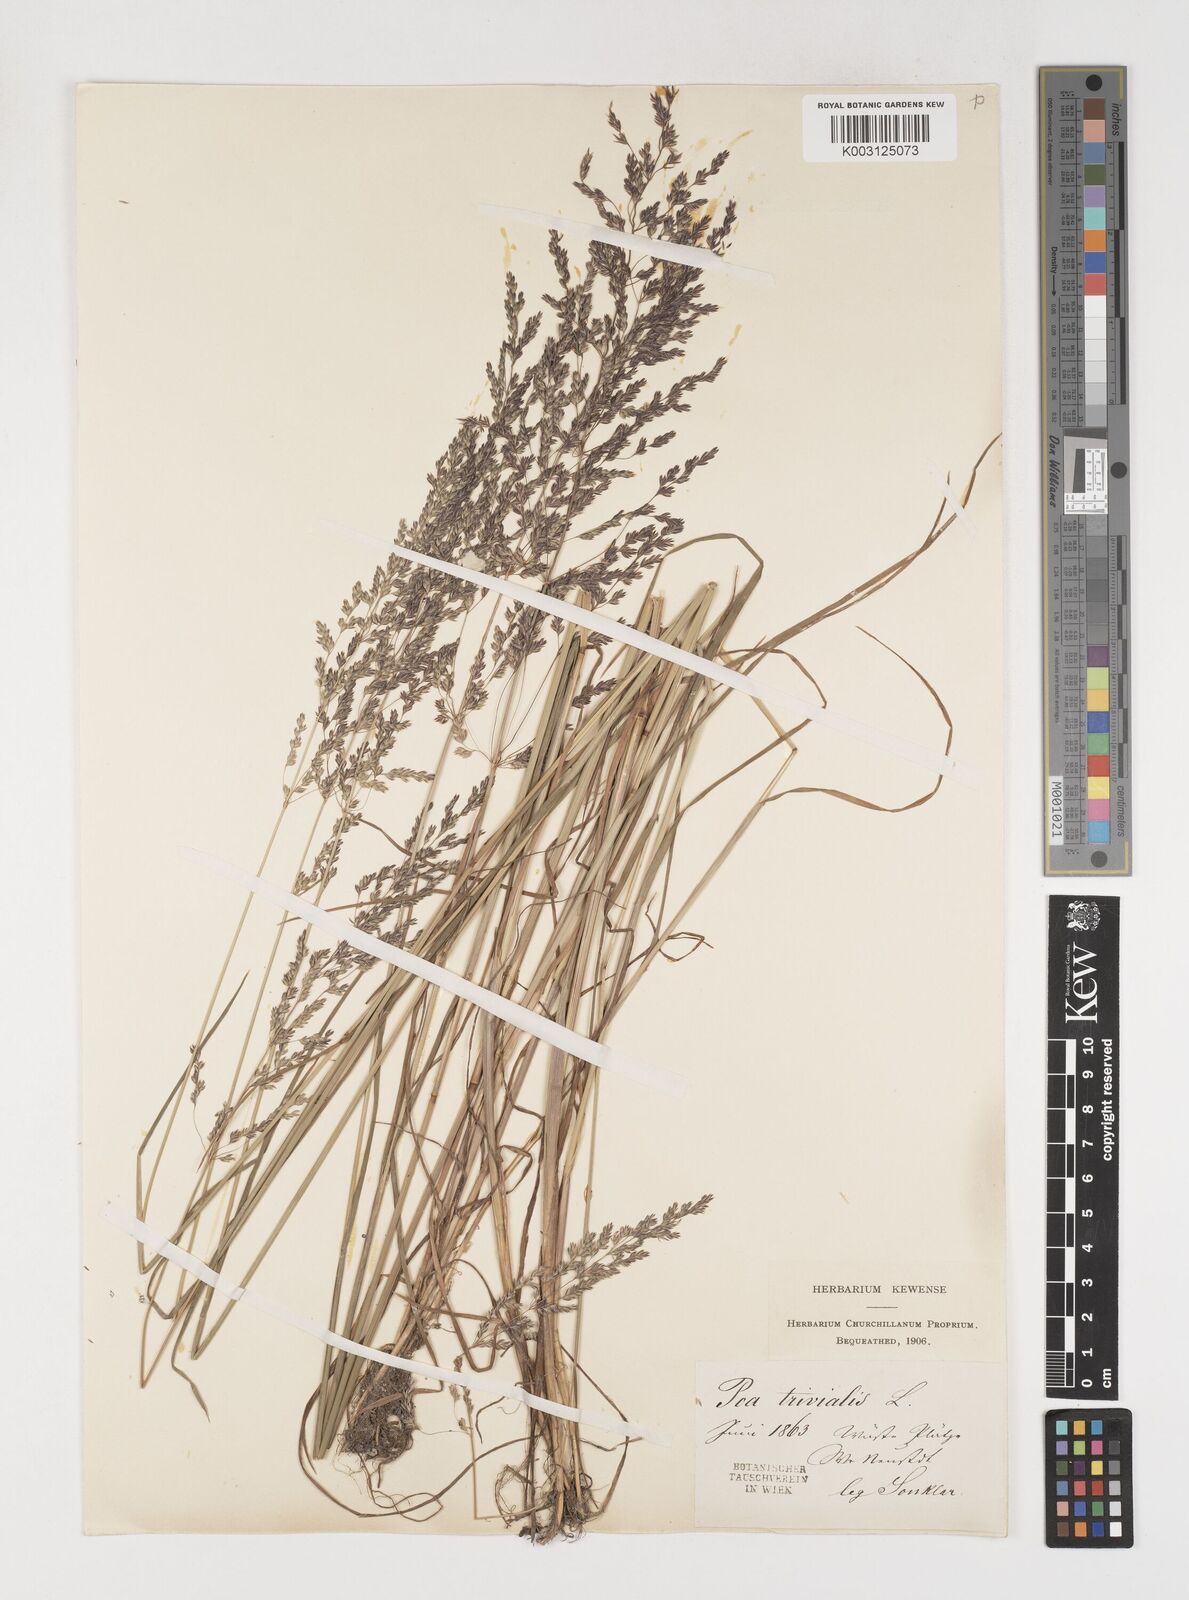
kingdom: Plantae
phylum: Tracheophyta
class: Liliopsida
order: Poales
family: Poaceae
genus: Poa
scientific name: Poa trivialis
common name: Rough bluegrass
